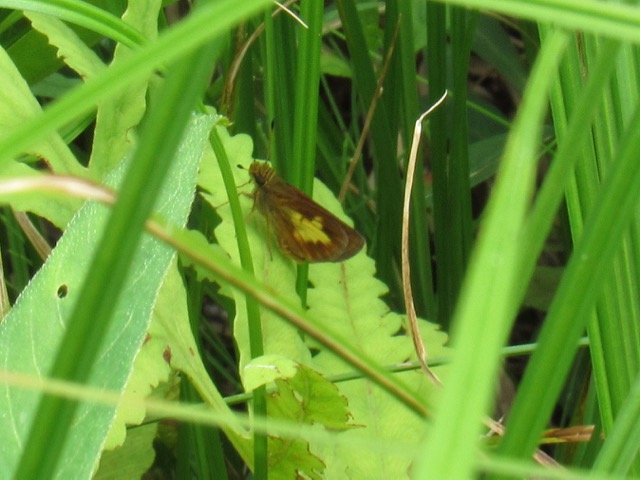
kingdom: Animalia
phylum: Arthropoda
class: Insecta
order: Lepidoptera
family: Hesperiidae
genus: Poanes
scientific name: Poanes massasoit
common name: Mulberry Wing
